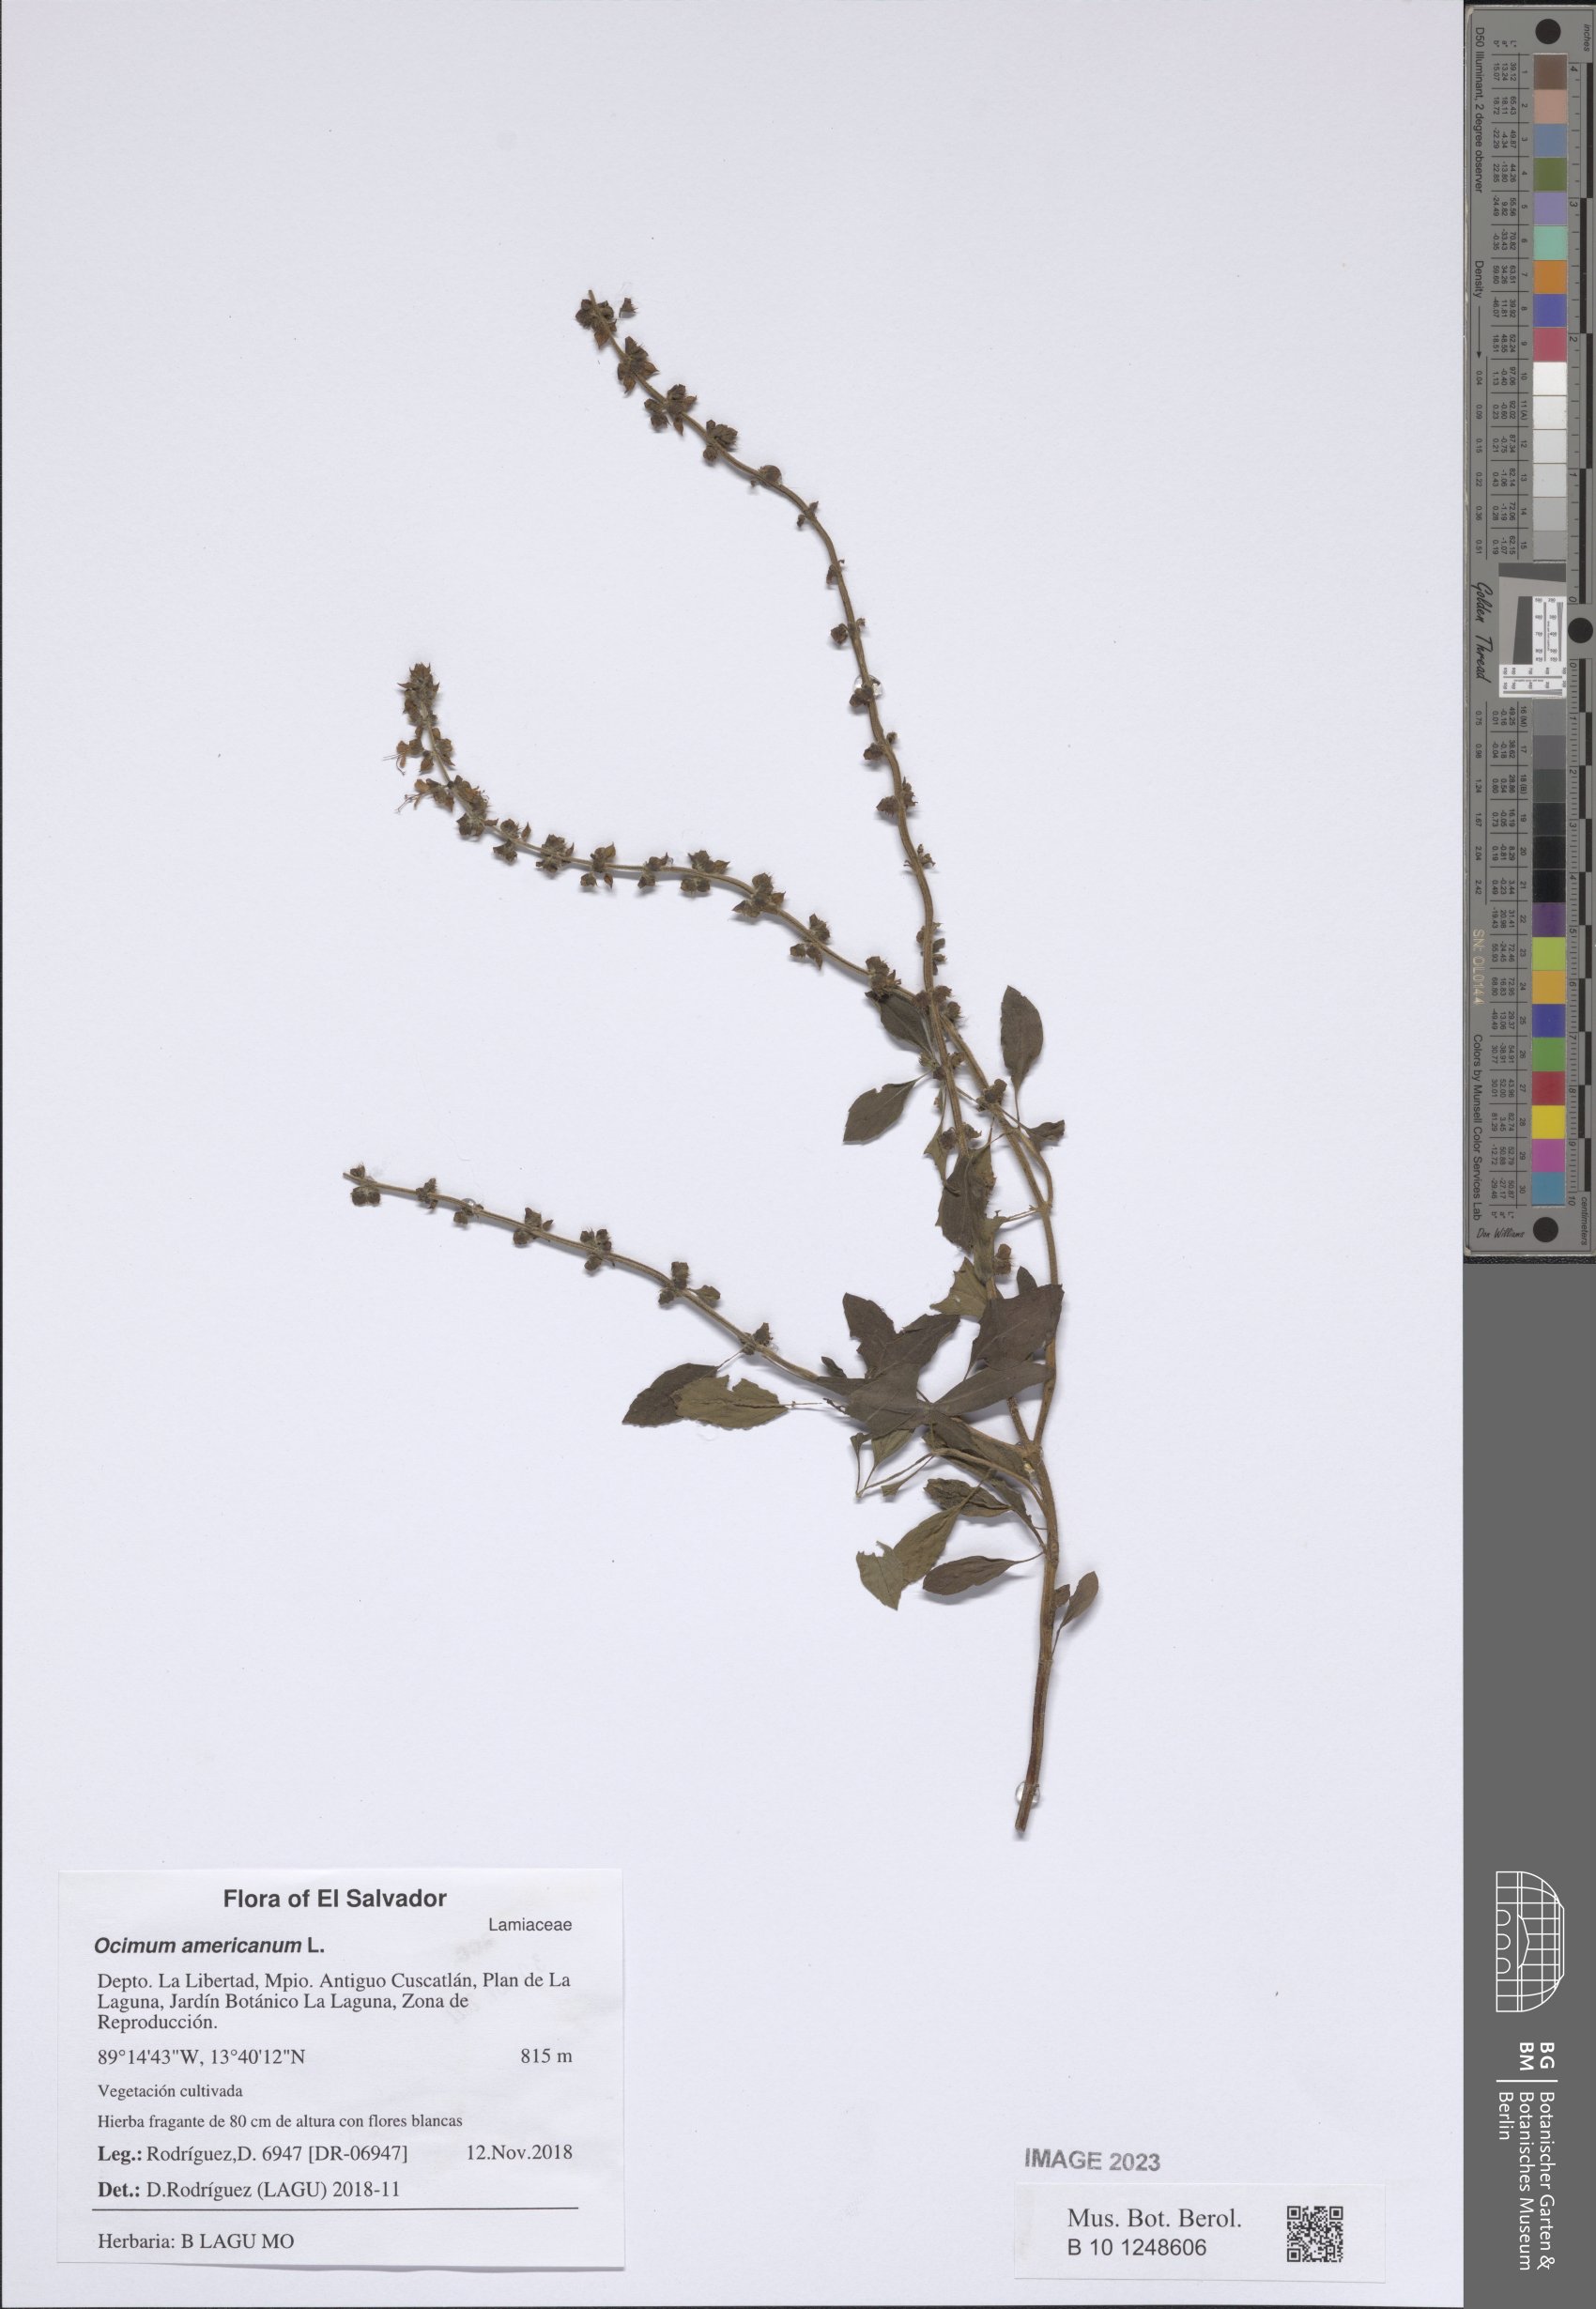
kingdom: Plantae
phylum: Tracheophyta
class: Magnoliopsida
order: Lamiales
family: Lamiaceae
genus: Ocimum
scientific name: Ocimum americanum
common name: American basil
